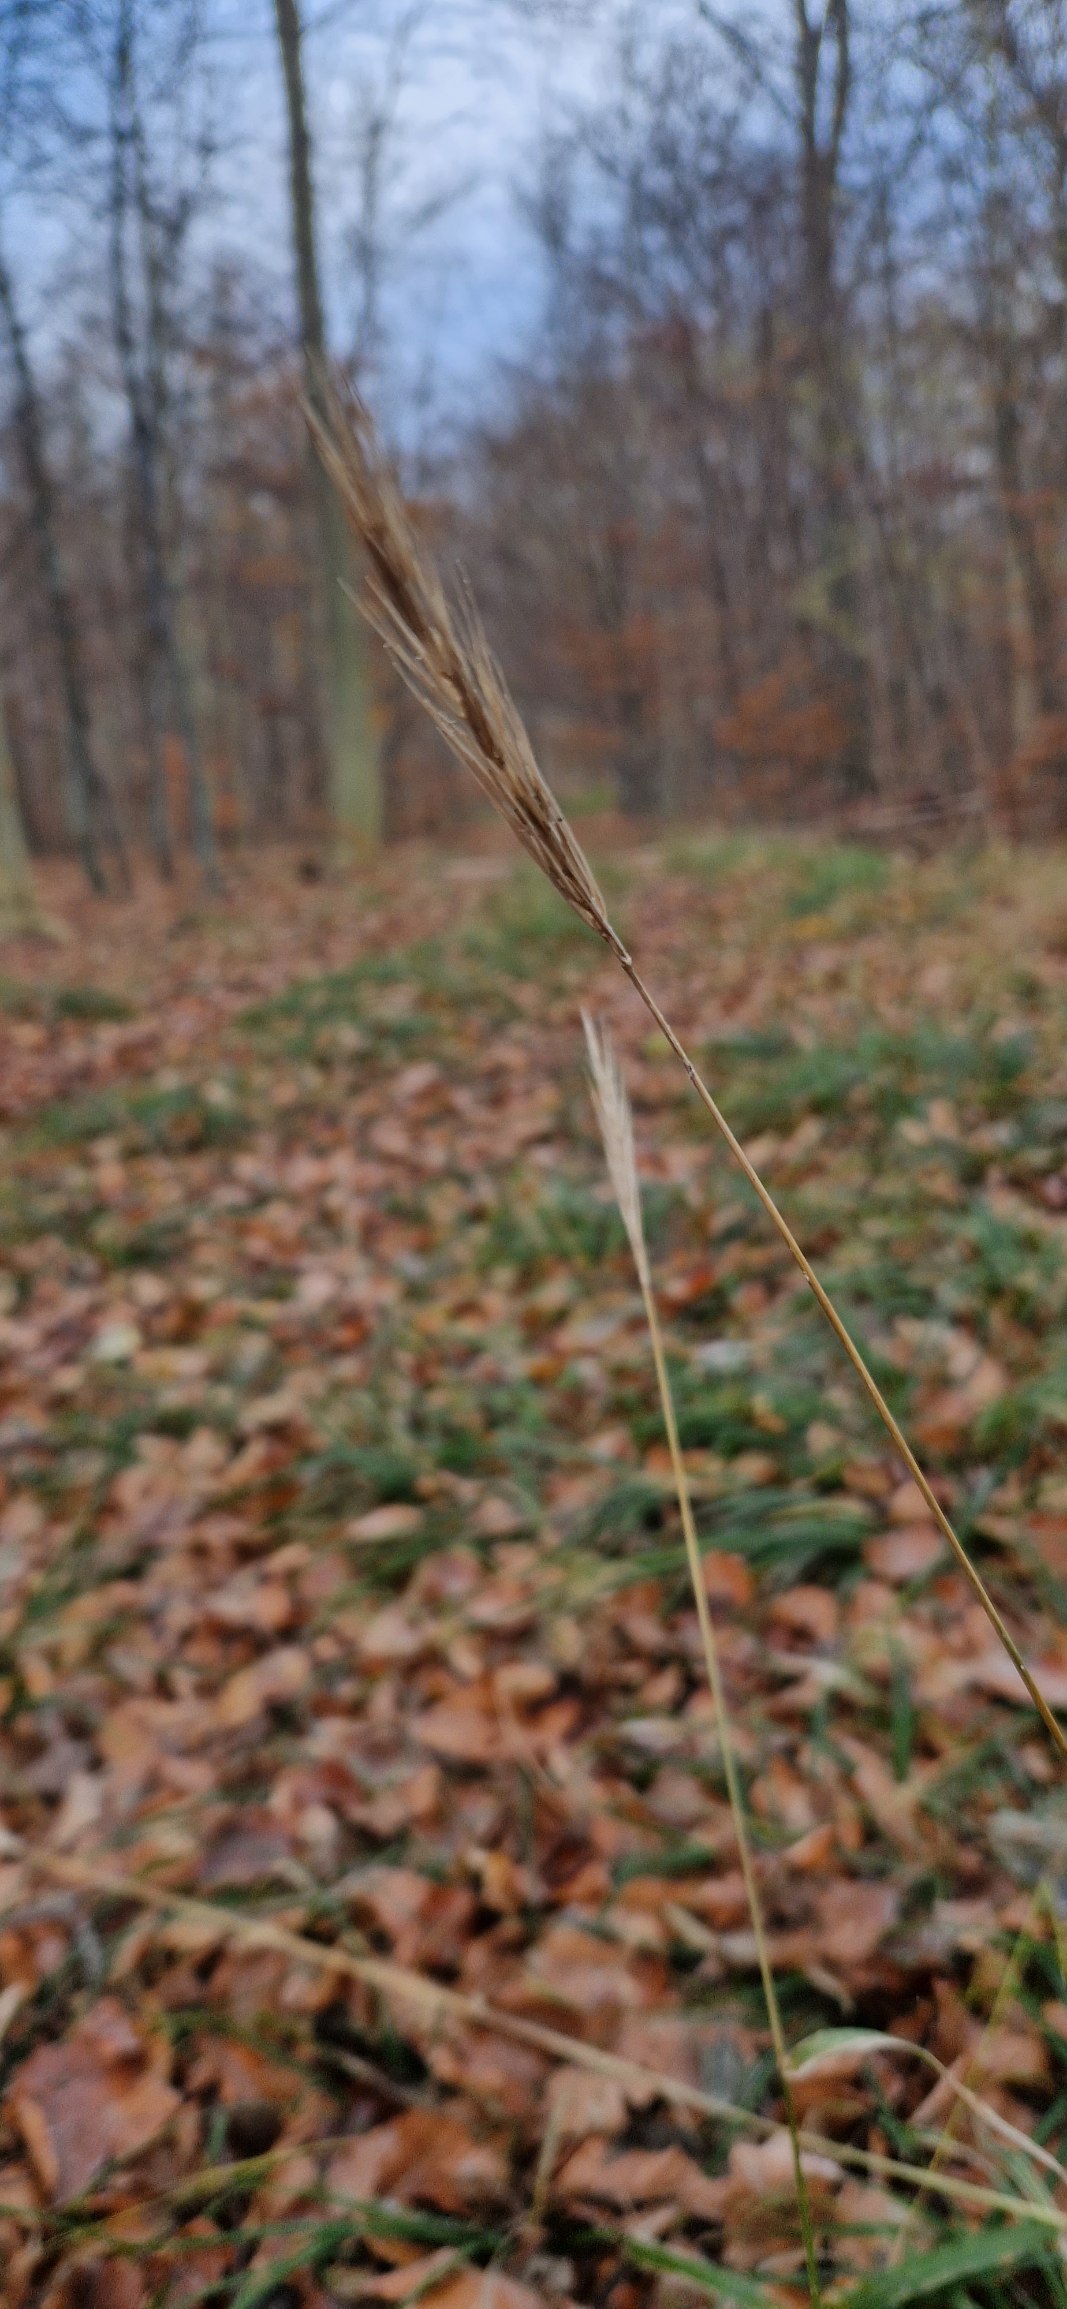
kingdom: Plantae
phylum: Tracheophyta
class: Liliopsida
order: Poales
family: Poaceae
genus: Hordelymus
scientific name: Hordelymus europaeus
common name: Skovbyg
